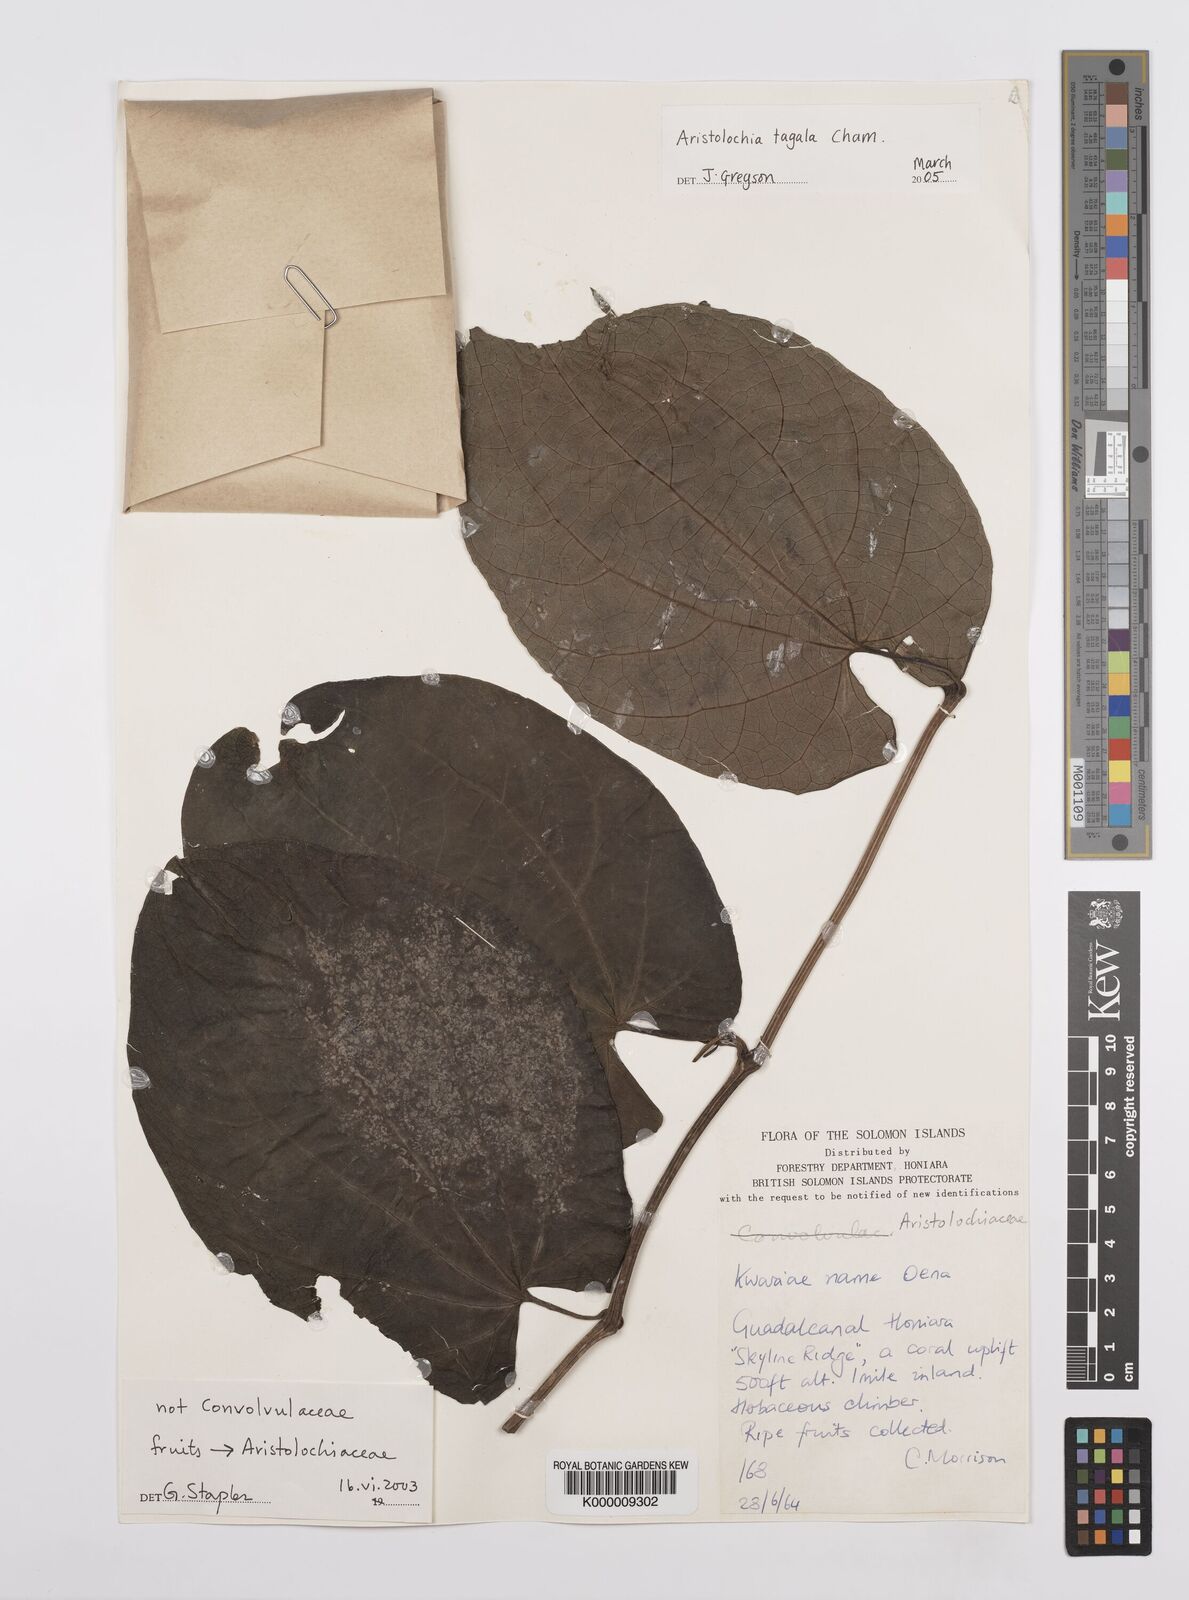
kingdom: Plantae
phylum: Tracheophyta
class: Magnoliopsida
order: Piperales
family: Aristolochiaceae
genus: Aristolochia
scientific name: Aristolochia acuminata
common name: Indian birthwort
